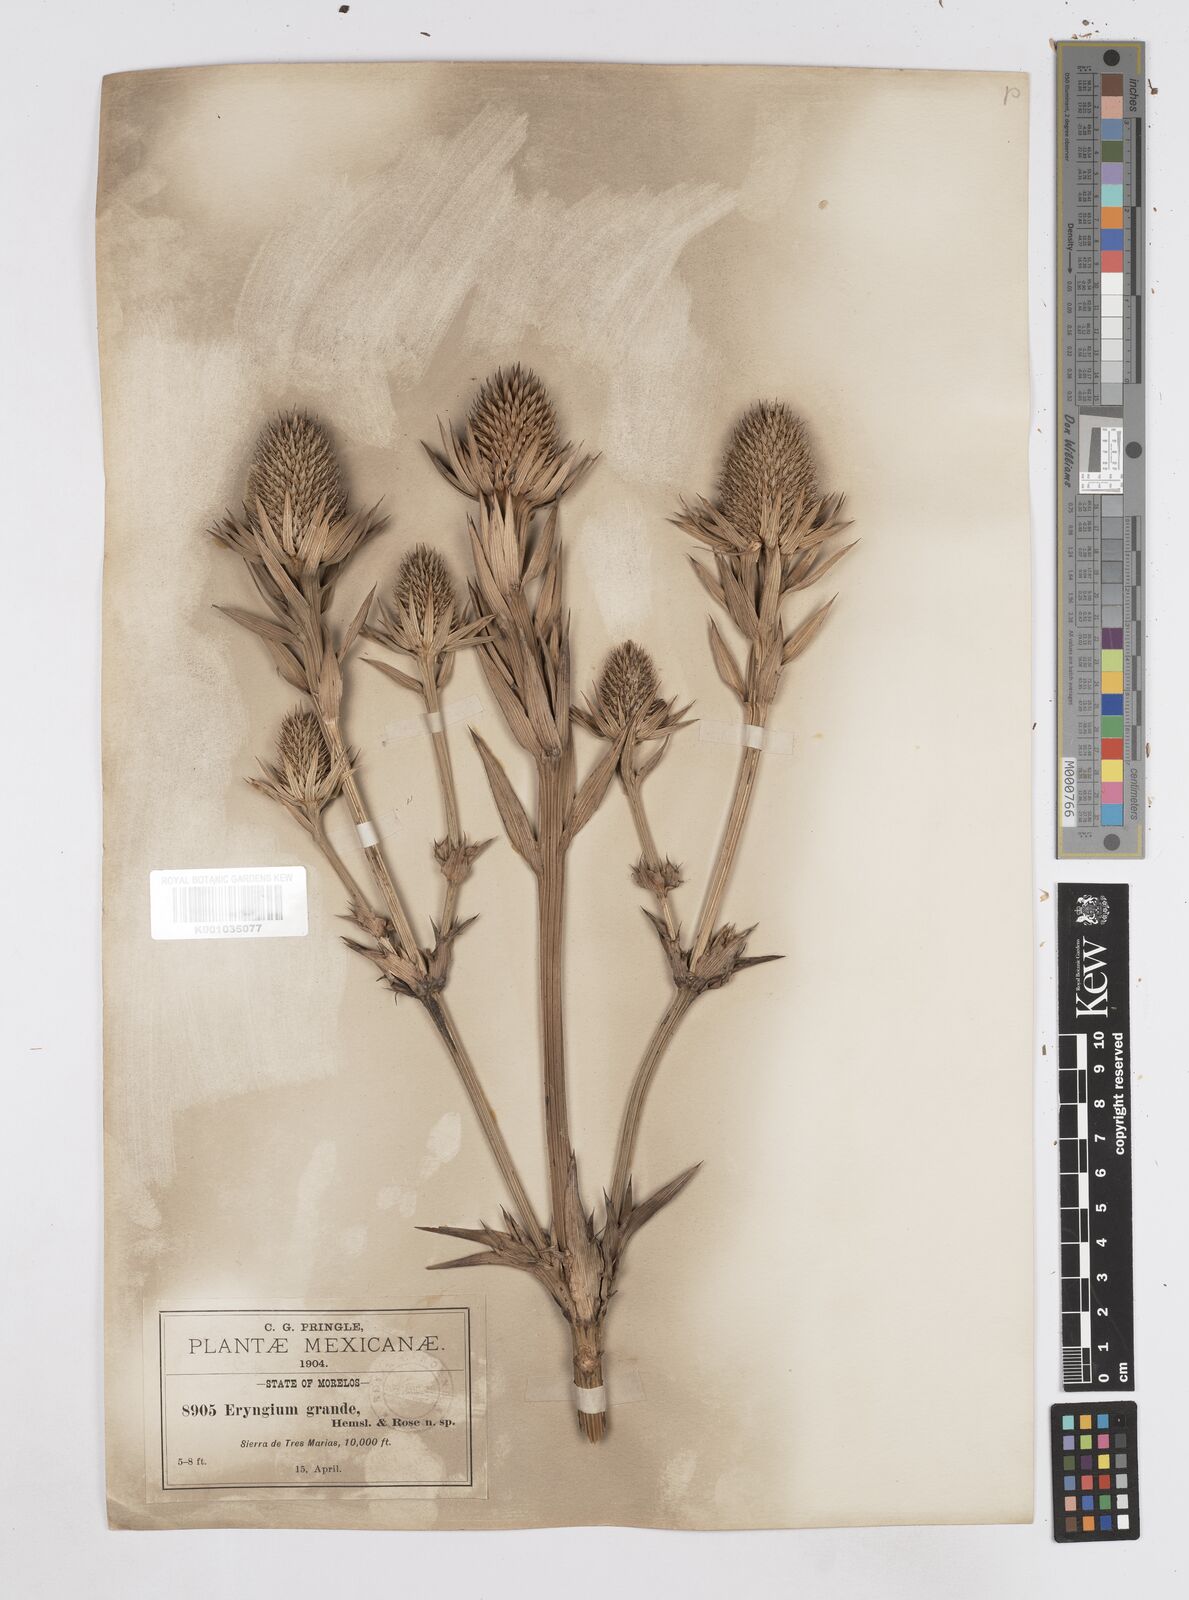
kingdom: Plantae
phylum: Tracheophyta
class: Magnoliopsida
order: Apiales
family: Apiaceae
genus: Eryngium
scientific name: Eryngium monocephalum
